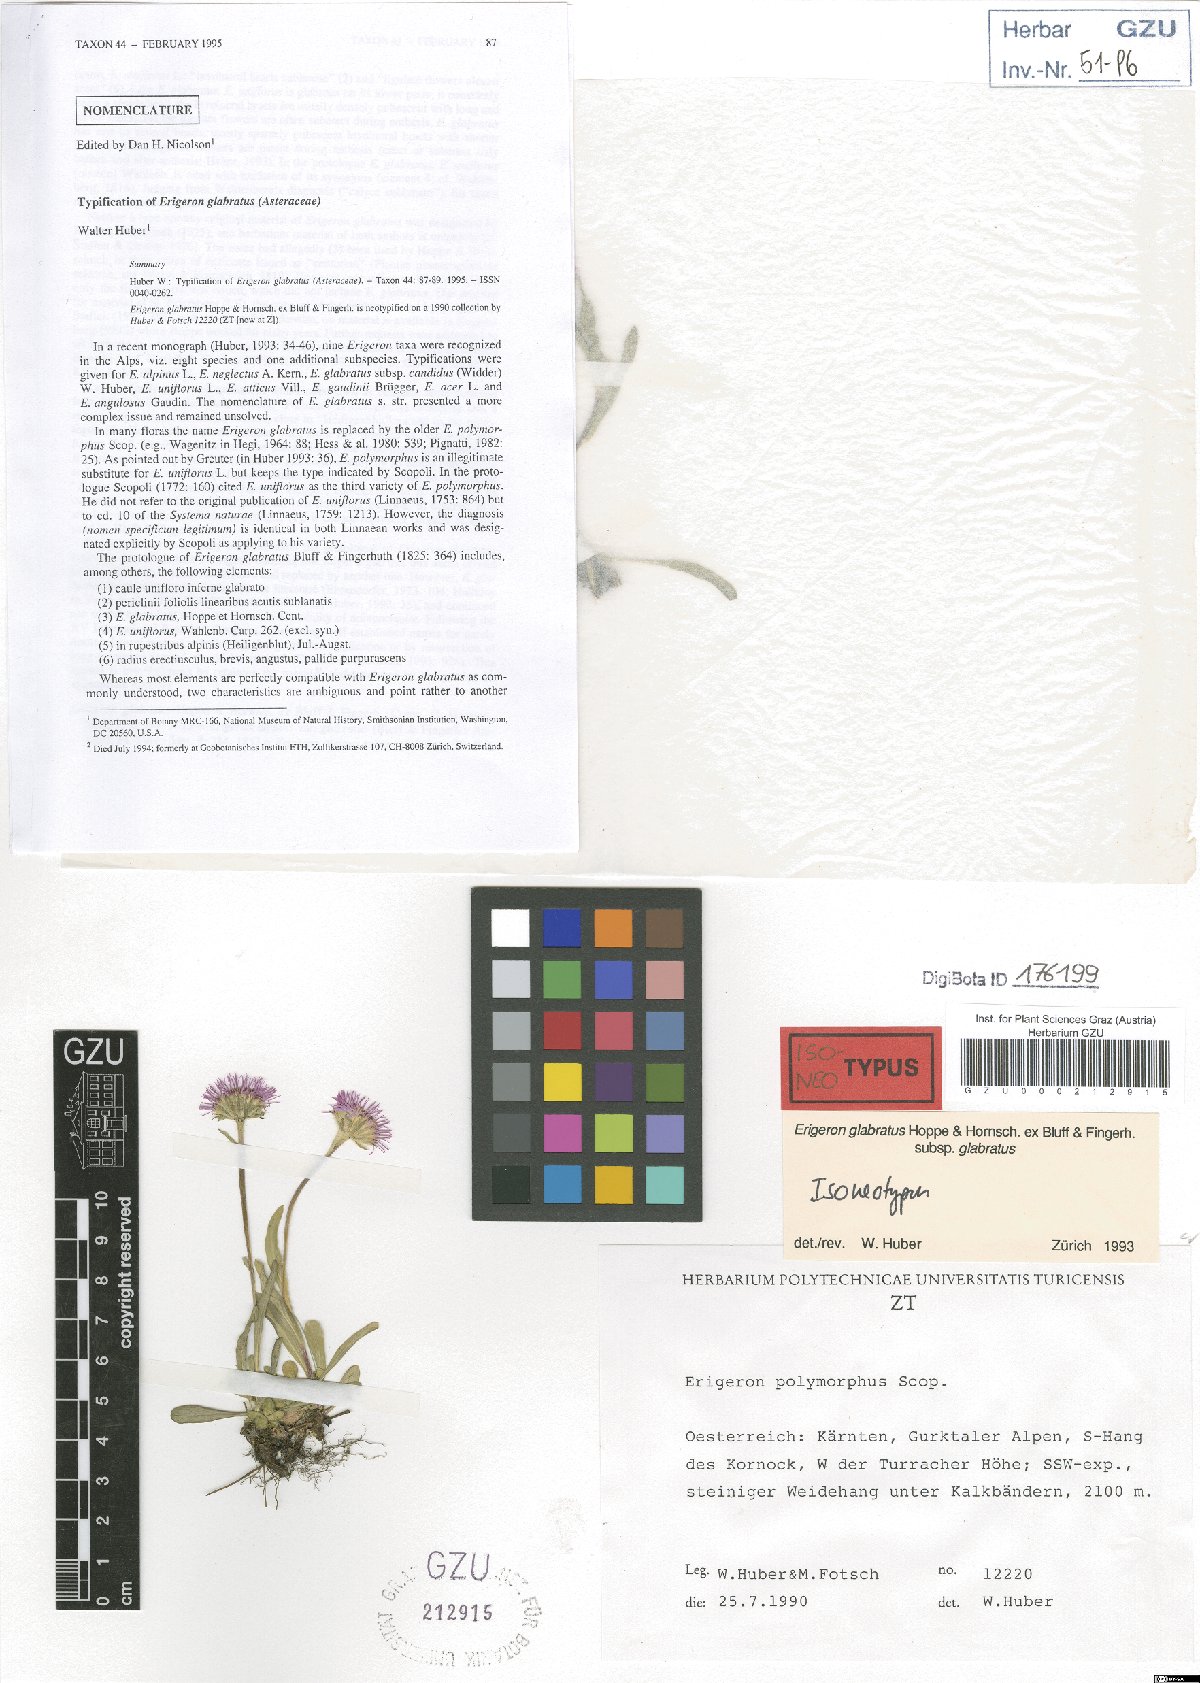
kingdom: Plantae
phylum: Tracheophyta
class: Magnoliopsida
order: Asterales
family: Asteraceae
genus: Erigeron
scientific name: Erigeron glabratus
